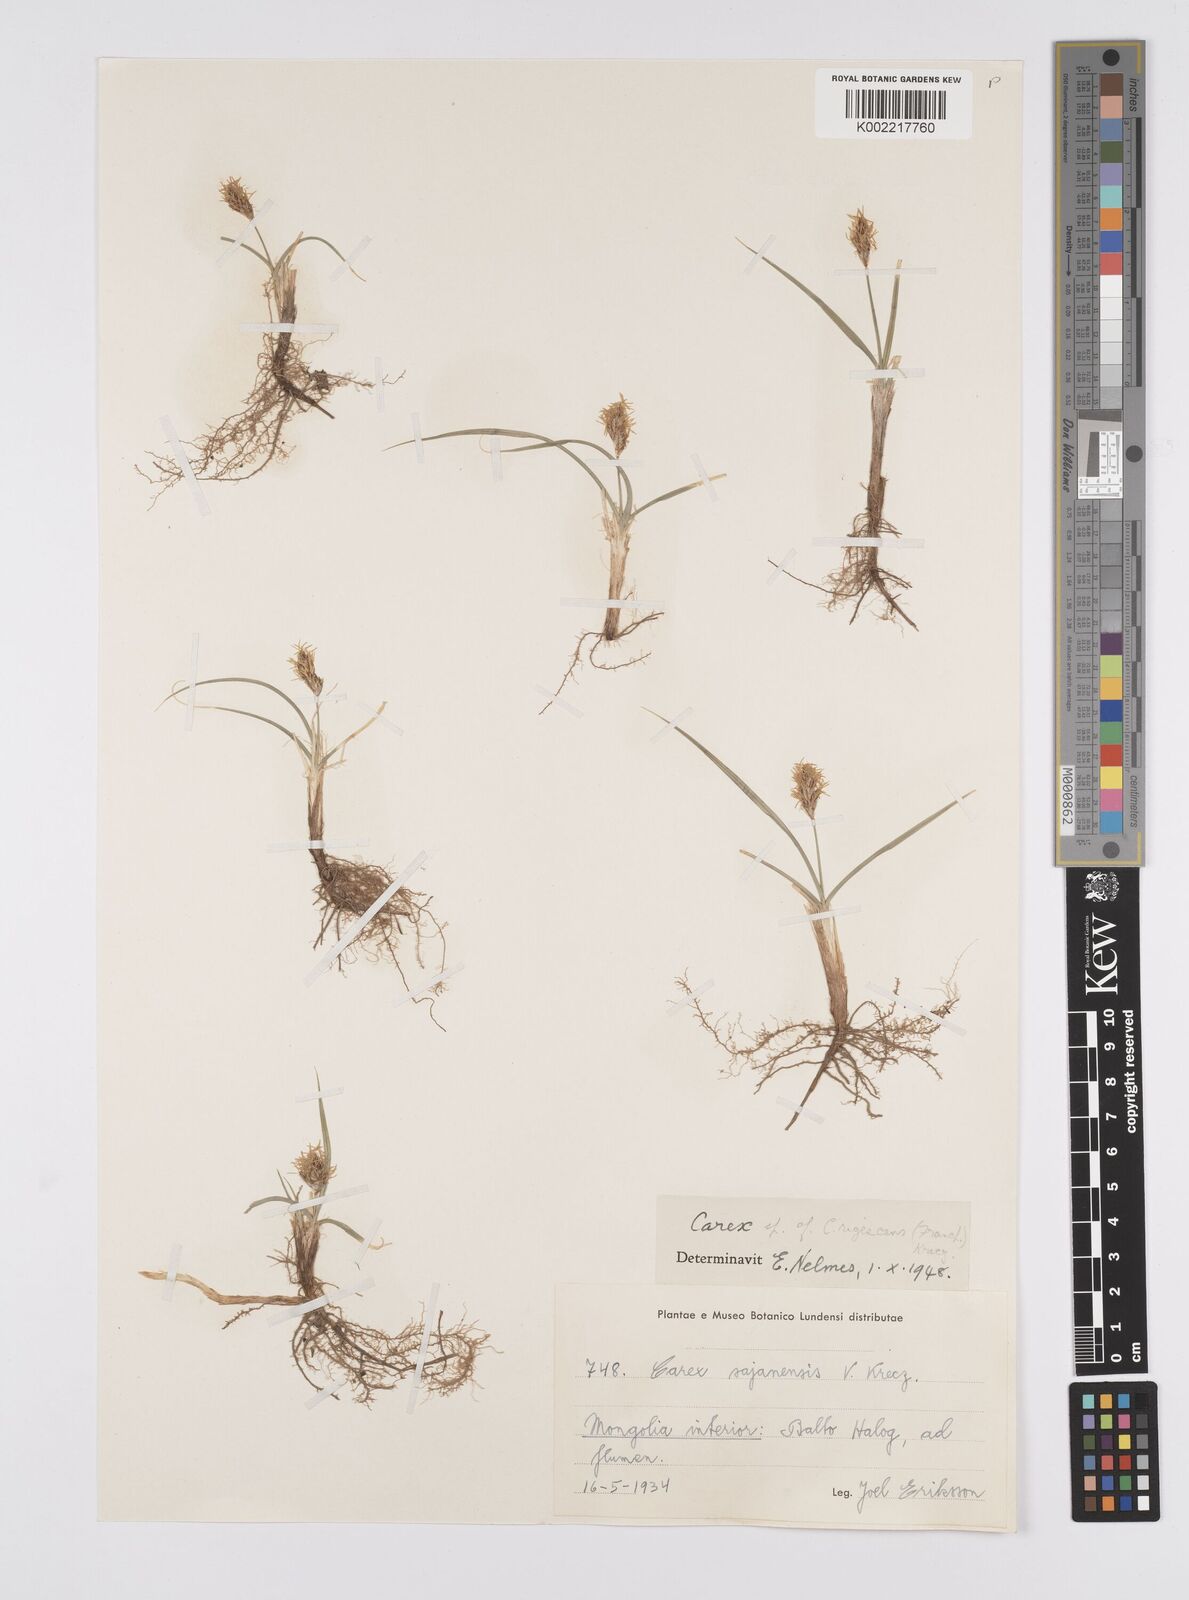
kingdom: Plantae
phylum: Tracheophyta
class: Liliopsida
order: Poales
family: Cyperaceae
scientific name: Cyperaceae
